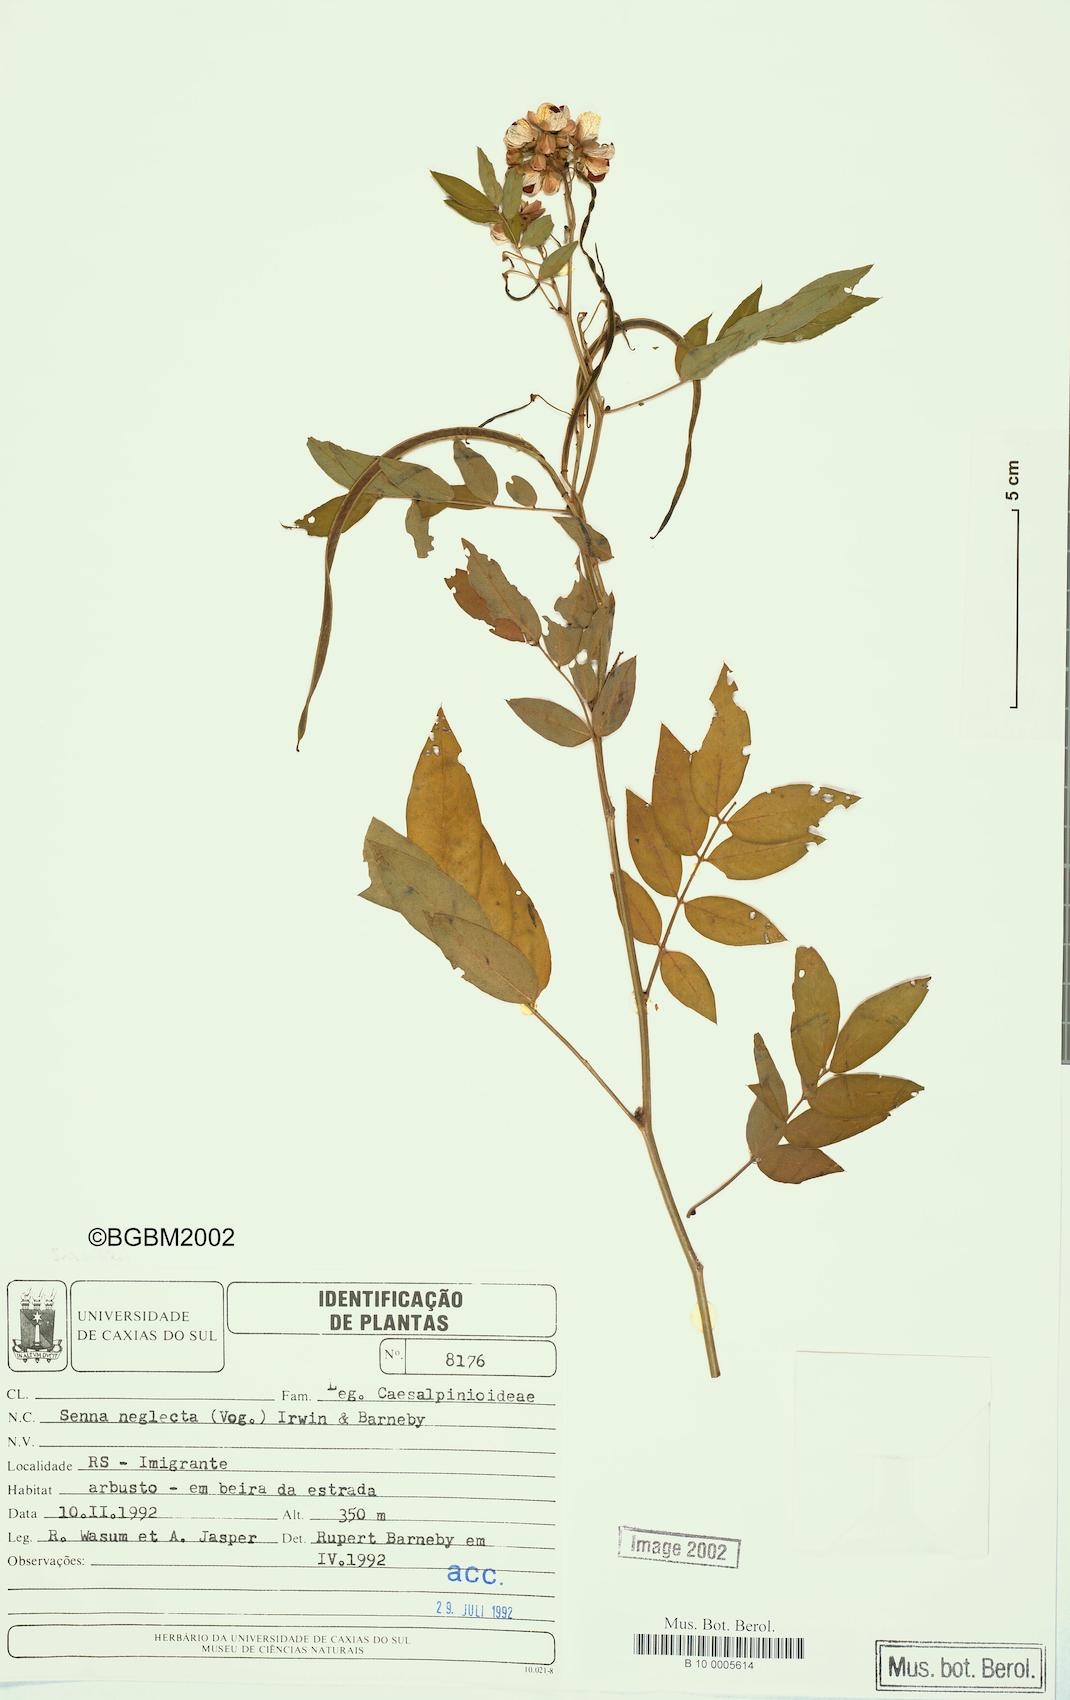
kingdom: Plantae
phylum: Tracheophyta
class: Magnoliopsida
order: Fabales
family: Fabaceae
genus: Senna
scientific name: Senna neglecta
